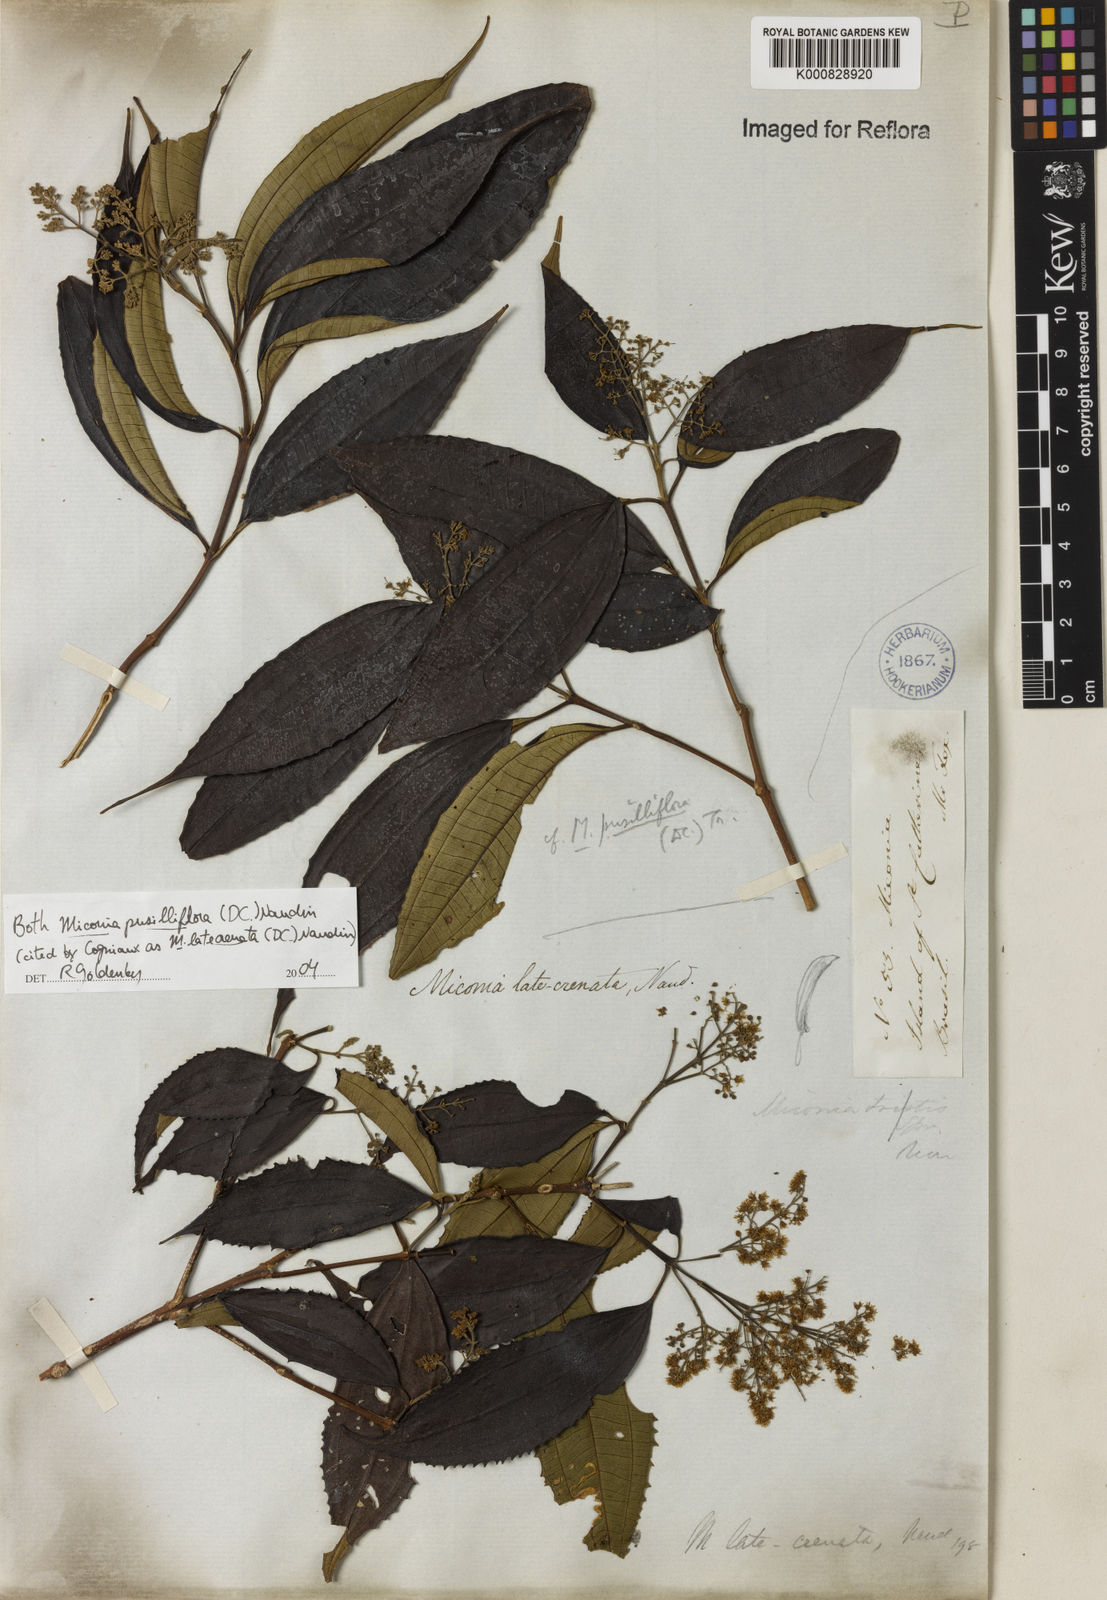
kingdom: Plantae
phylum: Tracheophyta
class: Magnoliopsida
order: Myrtales
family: Melastomataceae
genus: Miconia
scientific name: Miconia latecrenata
